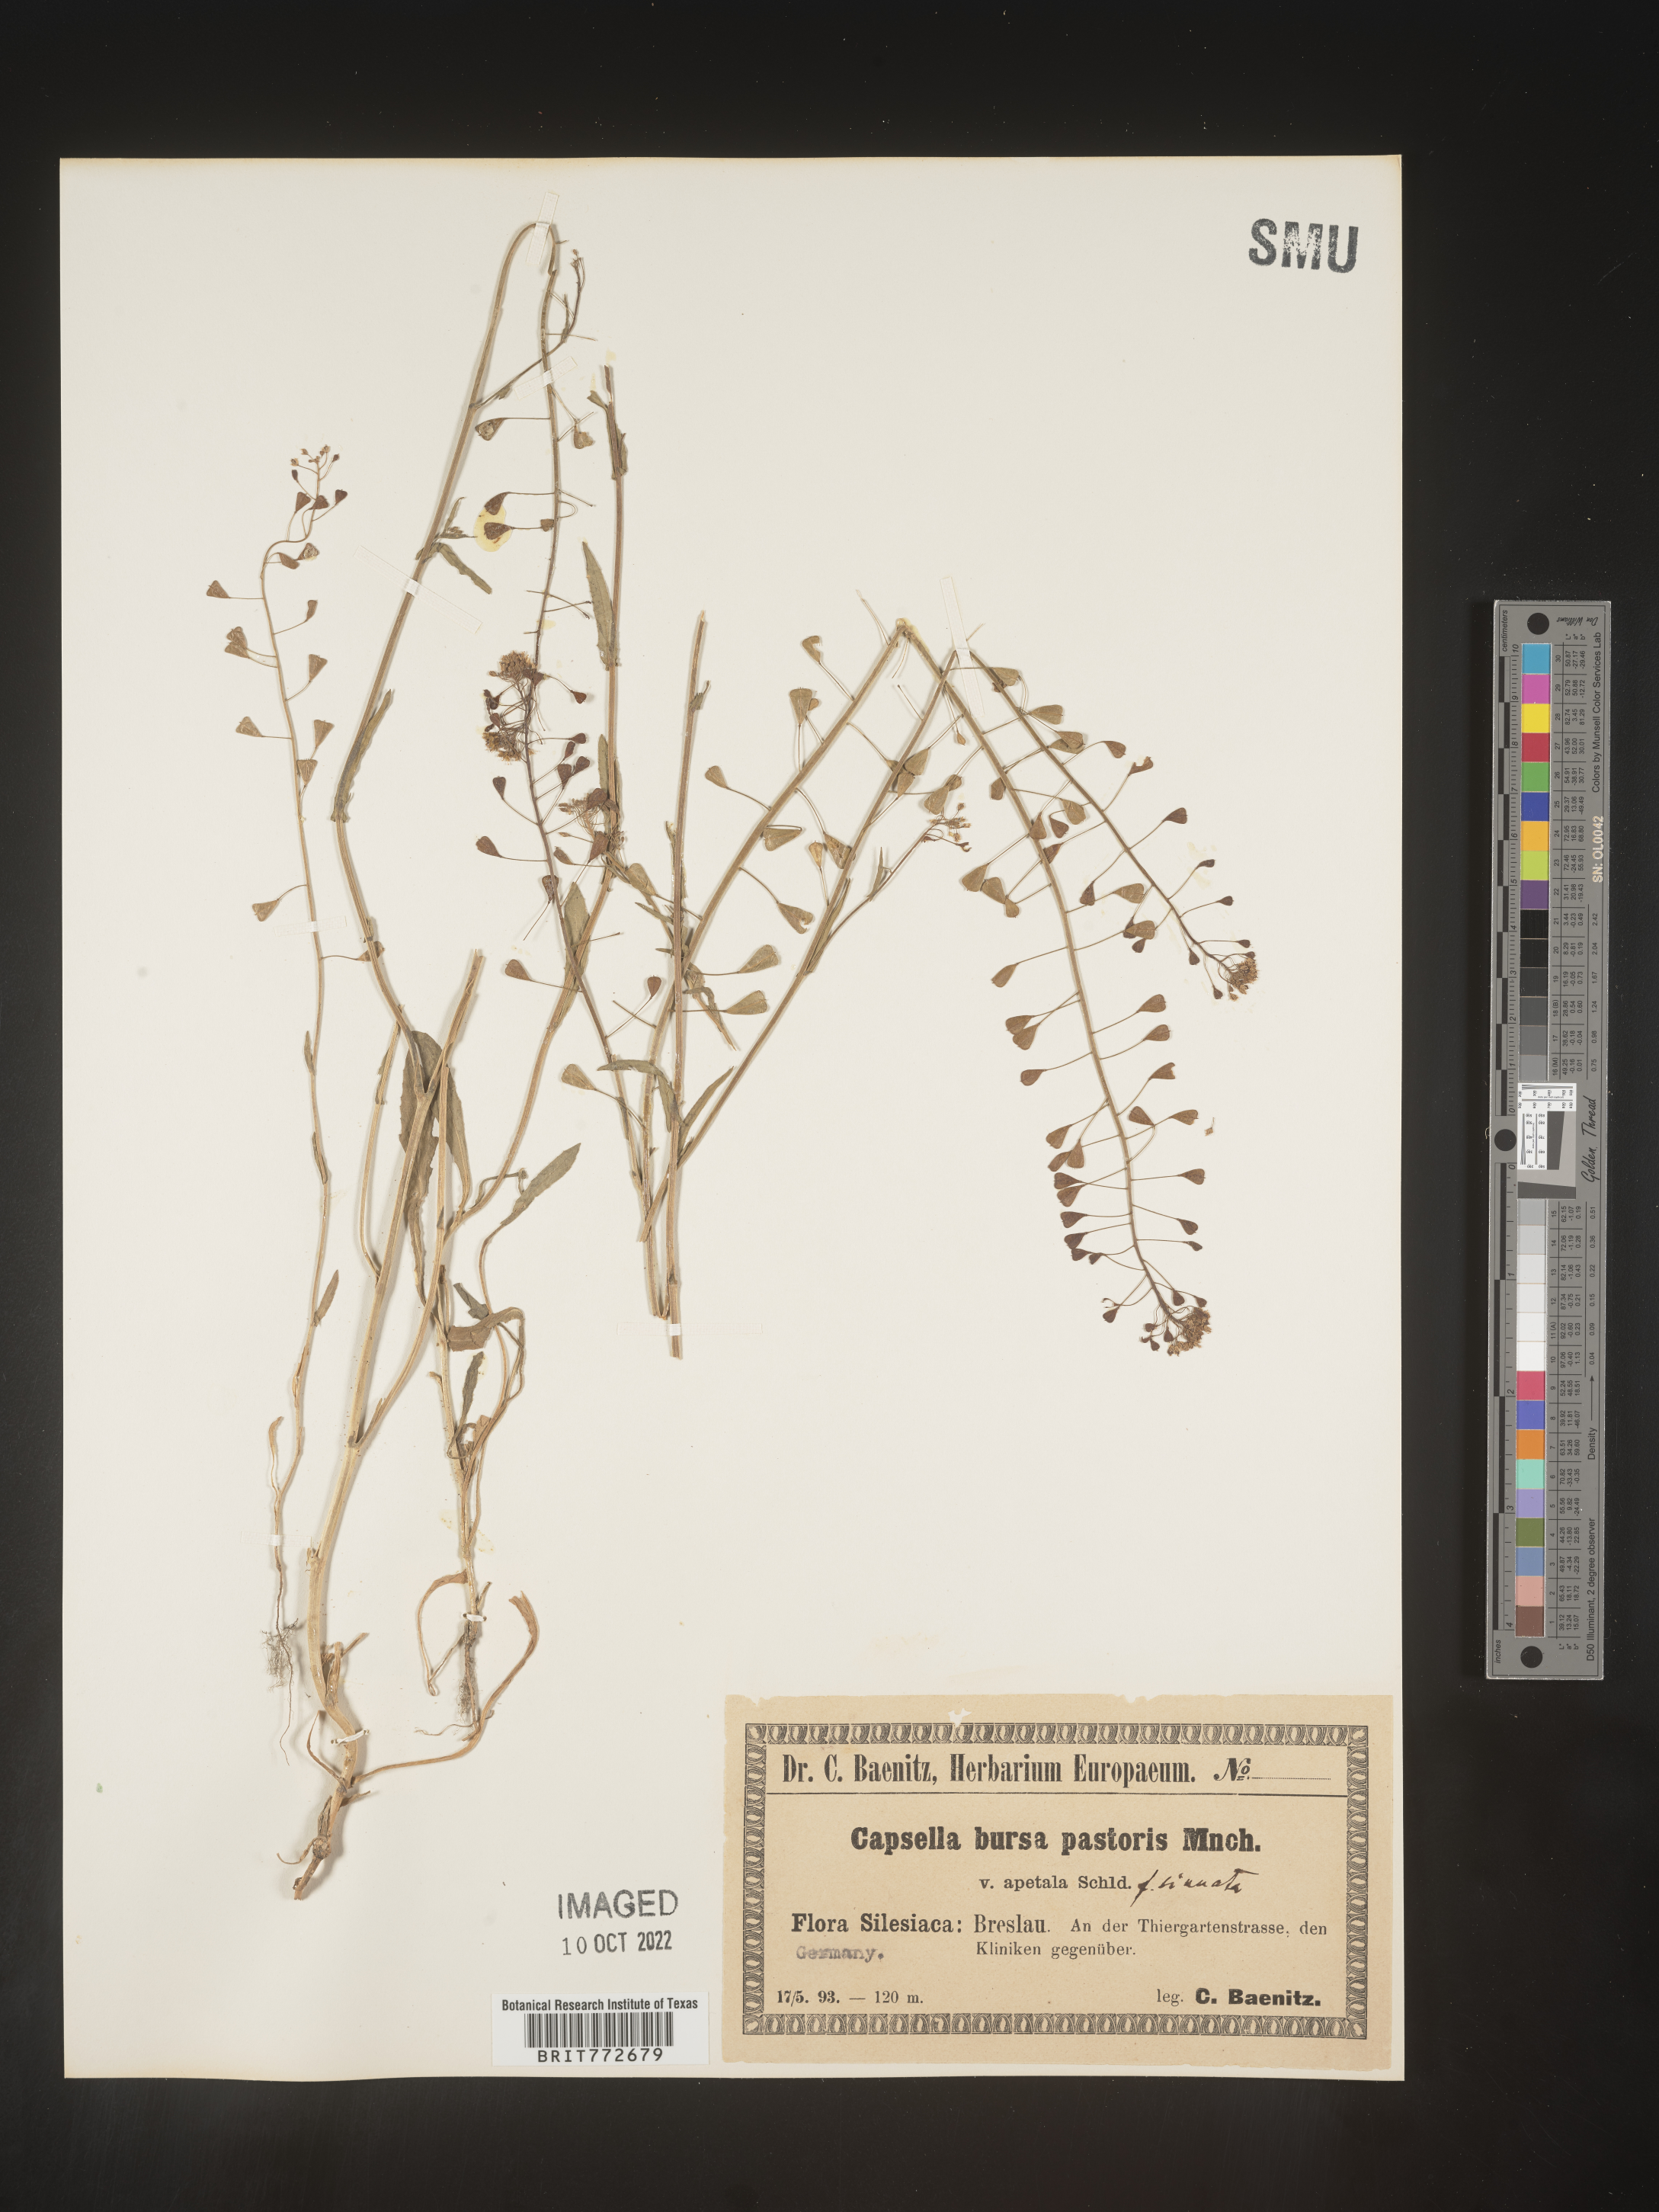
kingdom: Plantae
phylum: Tracheophyta
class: Magnoliopsida
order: Brassicales
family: Brassicaceae
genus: Capsella
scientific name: Capsella
